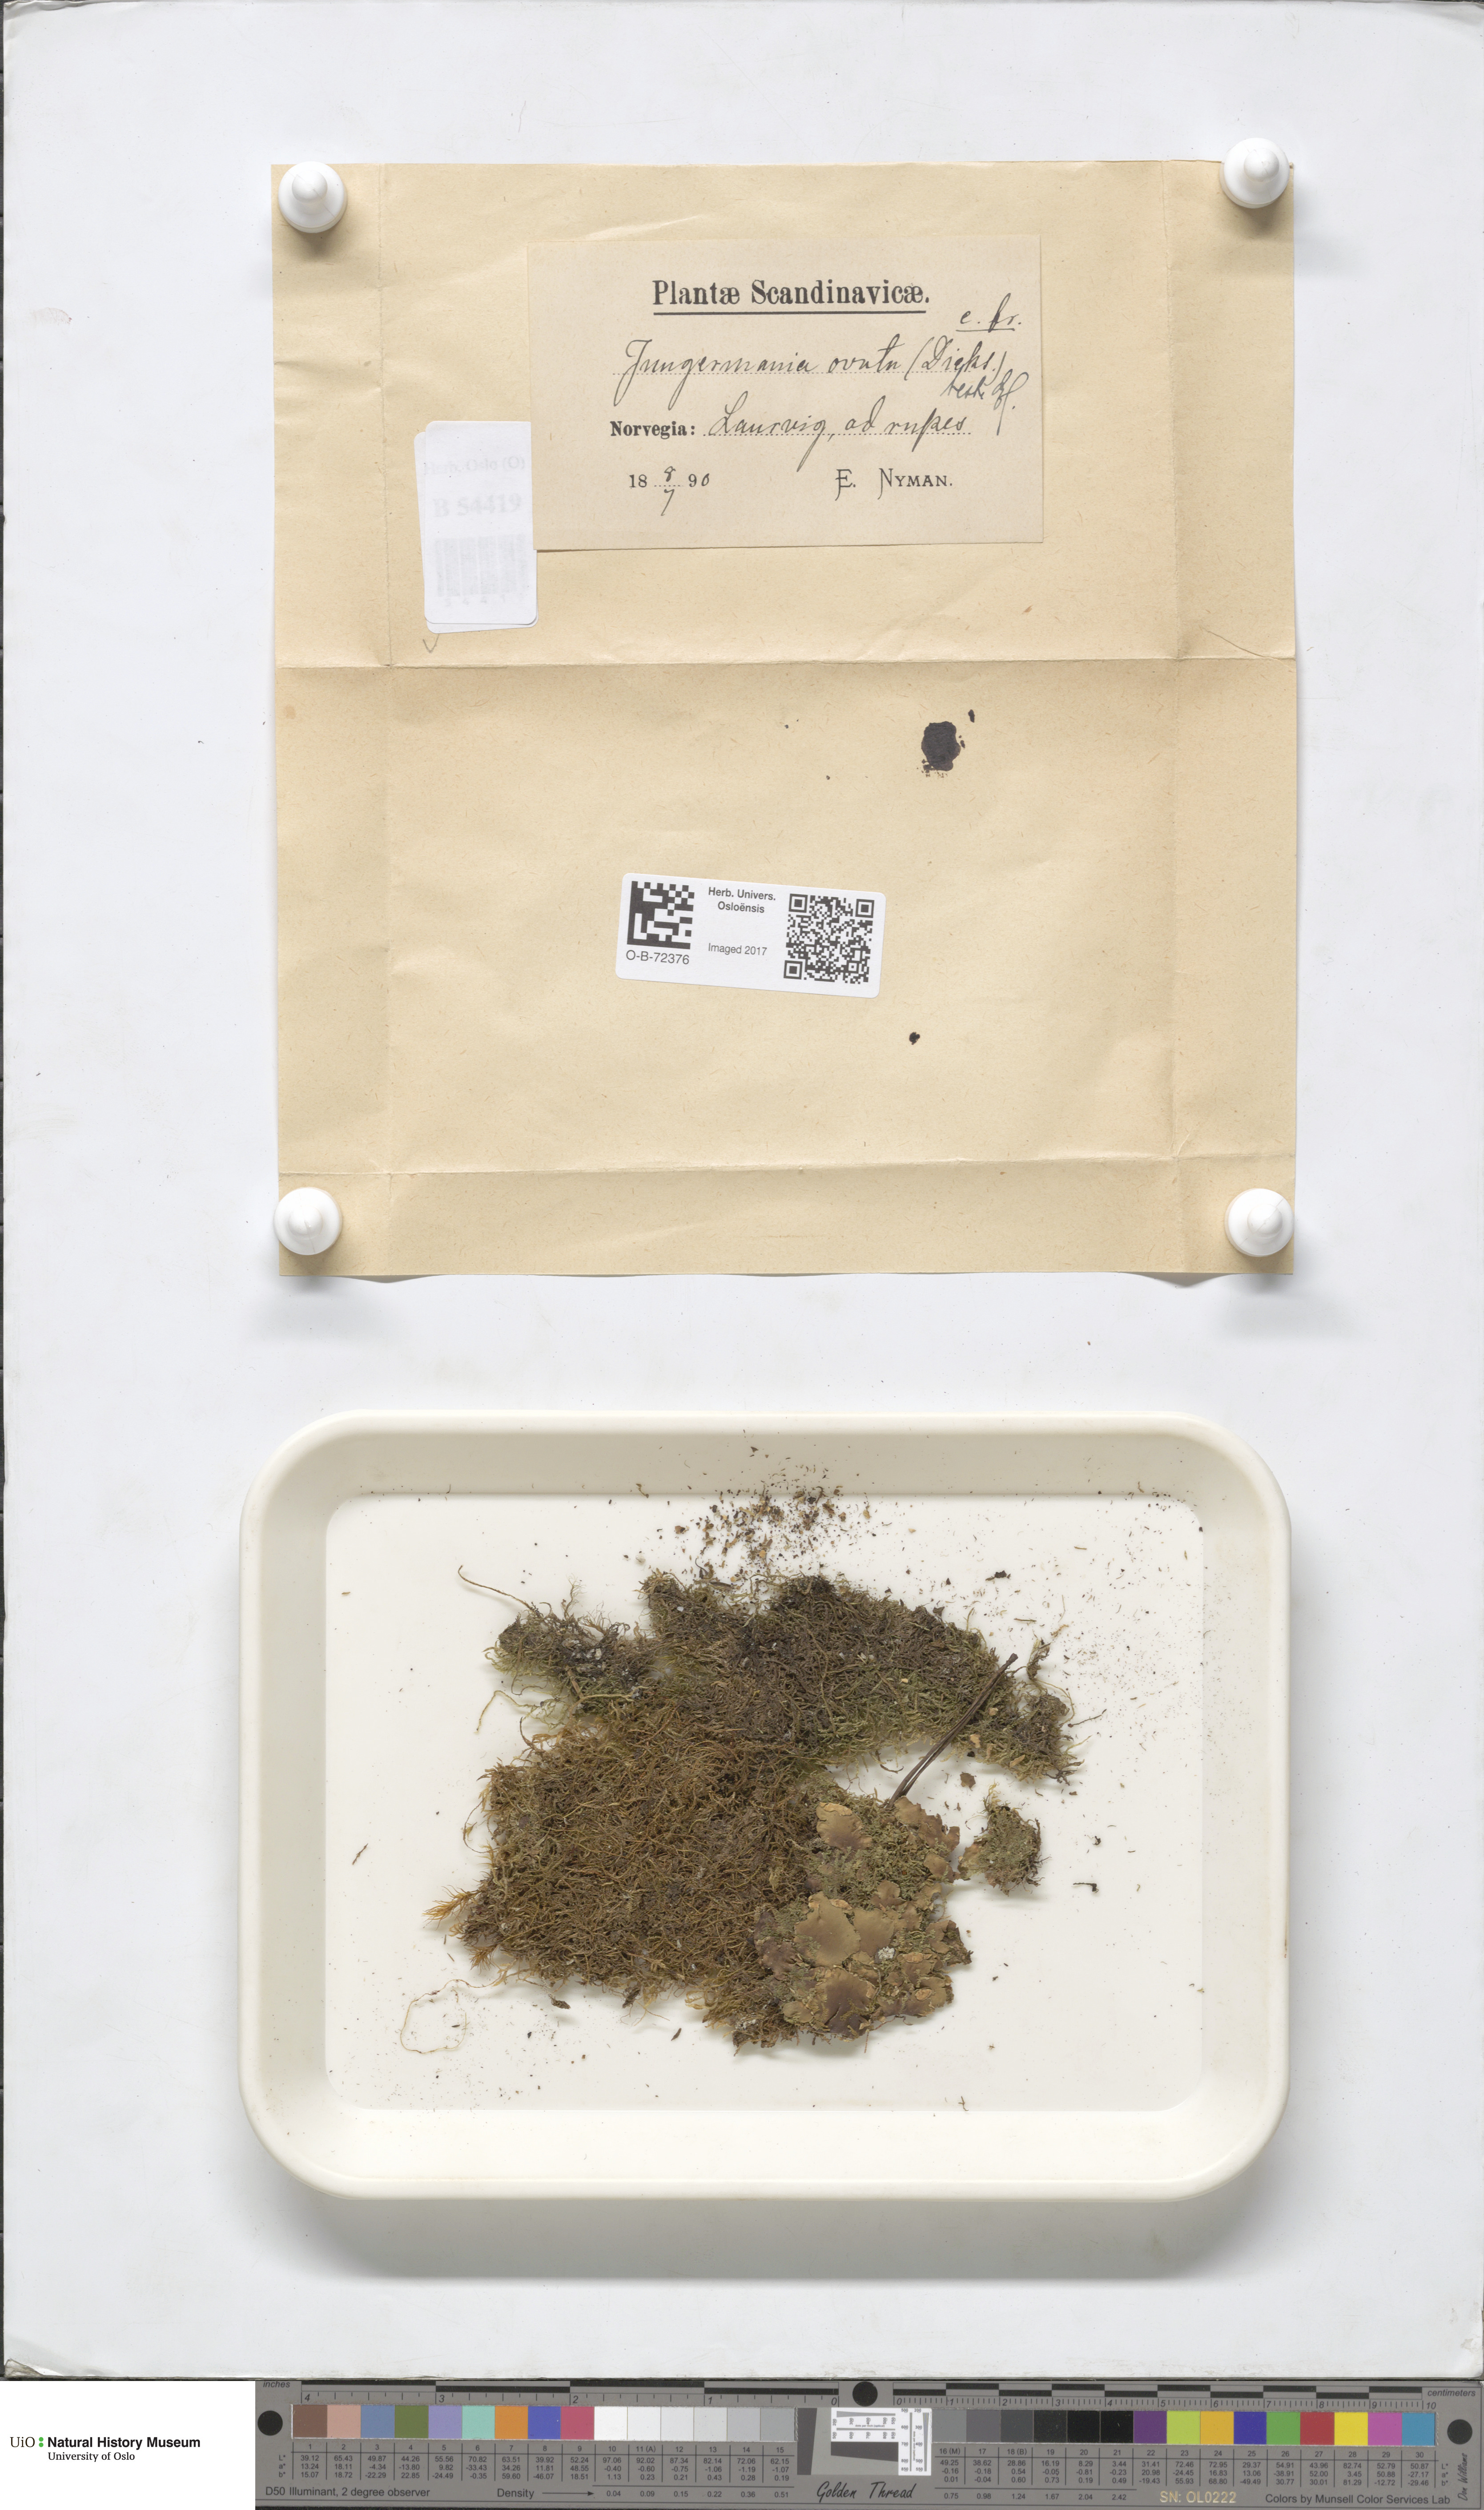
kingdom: Plantae
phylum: Marchantiophyta
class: Jungermanniopsida
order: Jungermanniales
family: Scapaniaceae
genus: Douinia
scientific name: Douinia ovata
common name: Waxy earwort
